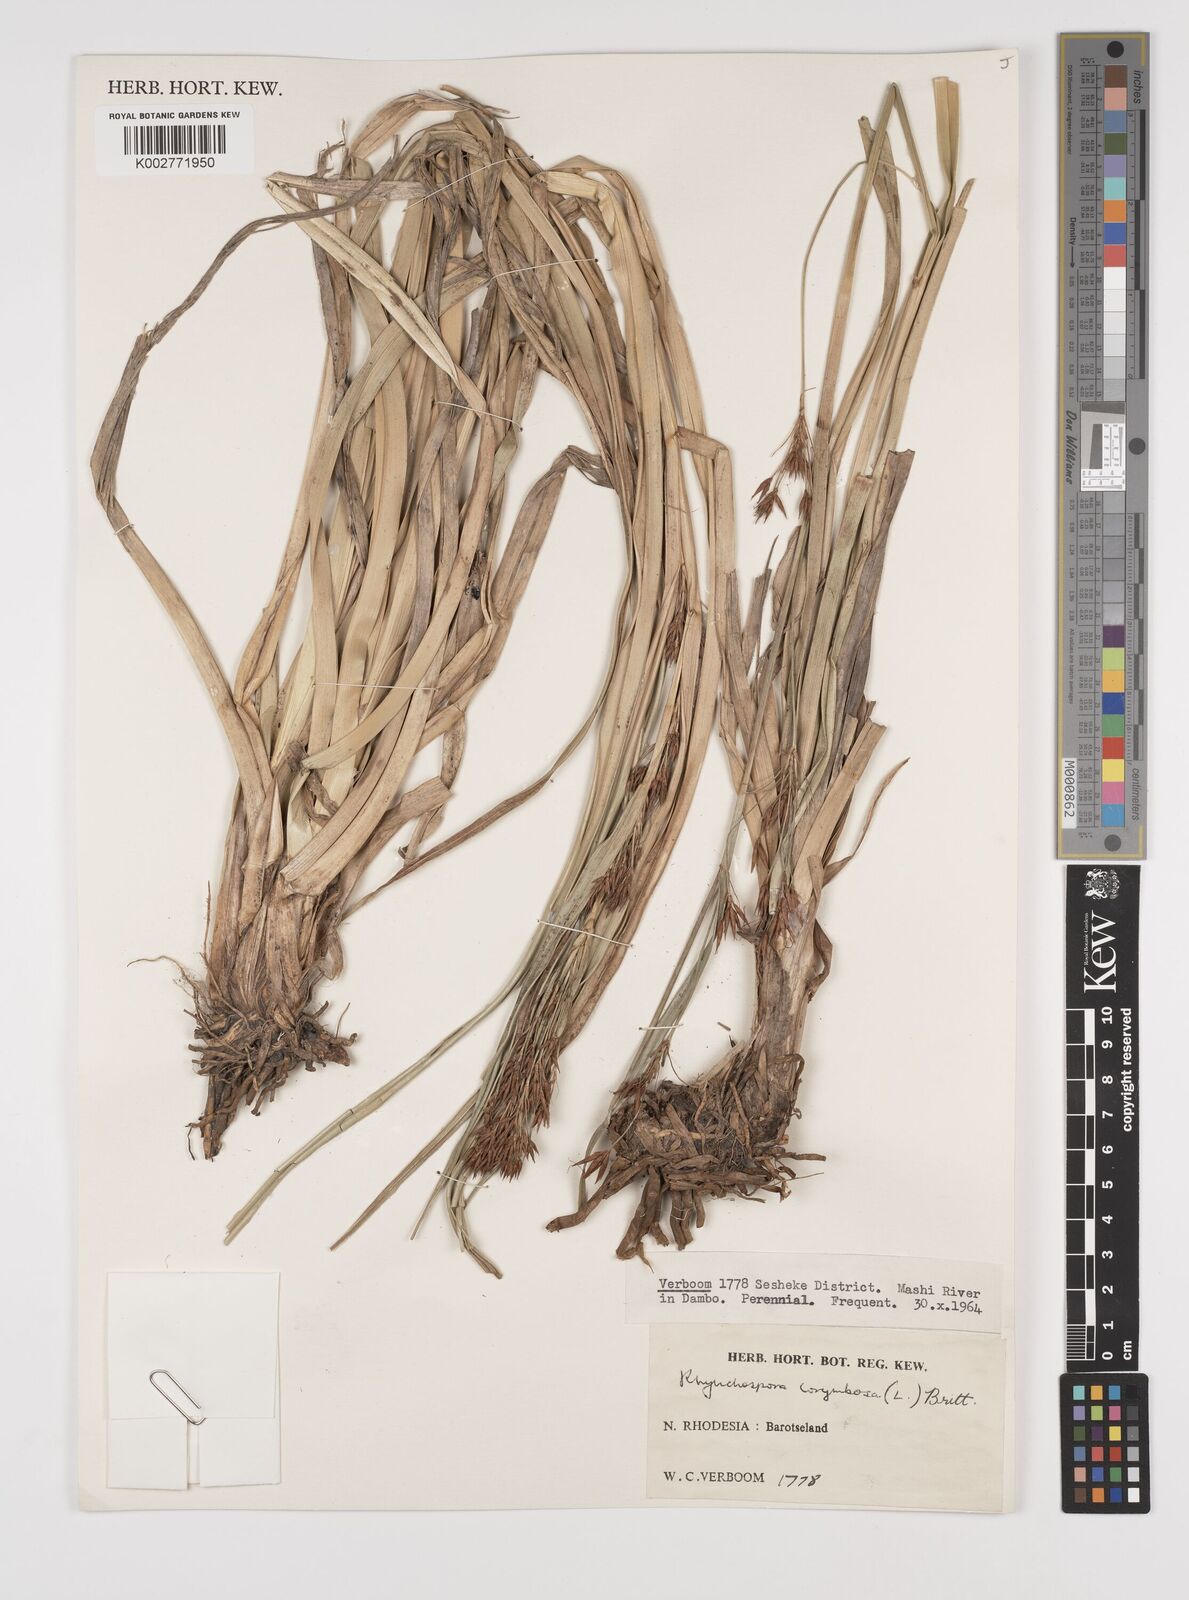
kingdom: Plantae
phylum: Tracheophyta
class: Liliopsida
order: Poales
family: Cyperaceae
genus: Rhynchospora
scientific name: Rhynchospora corymbosa
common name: Golden beak sedge
